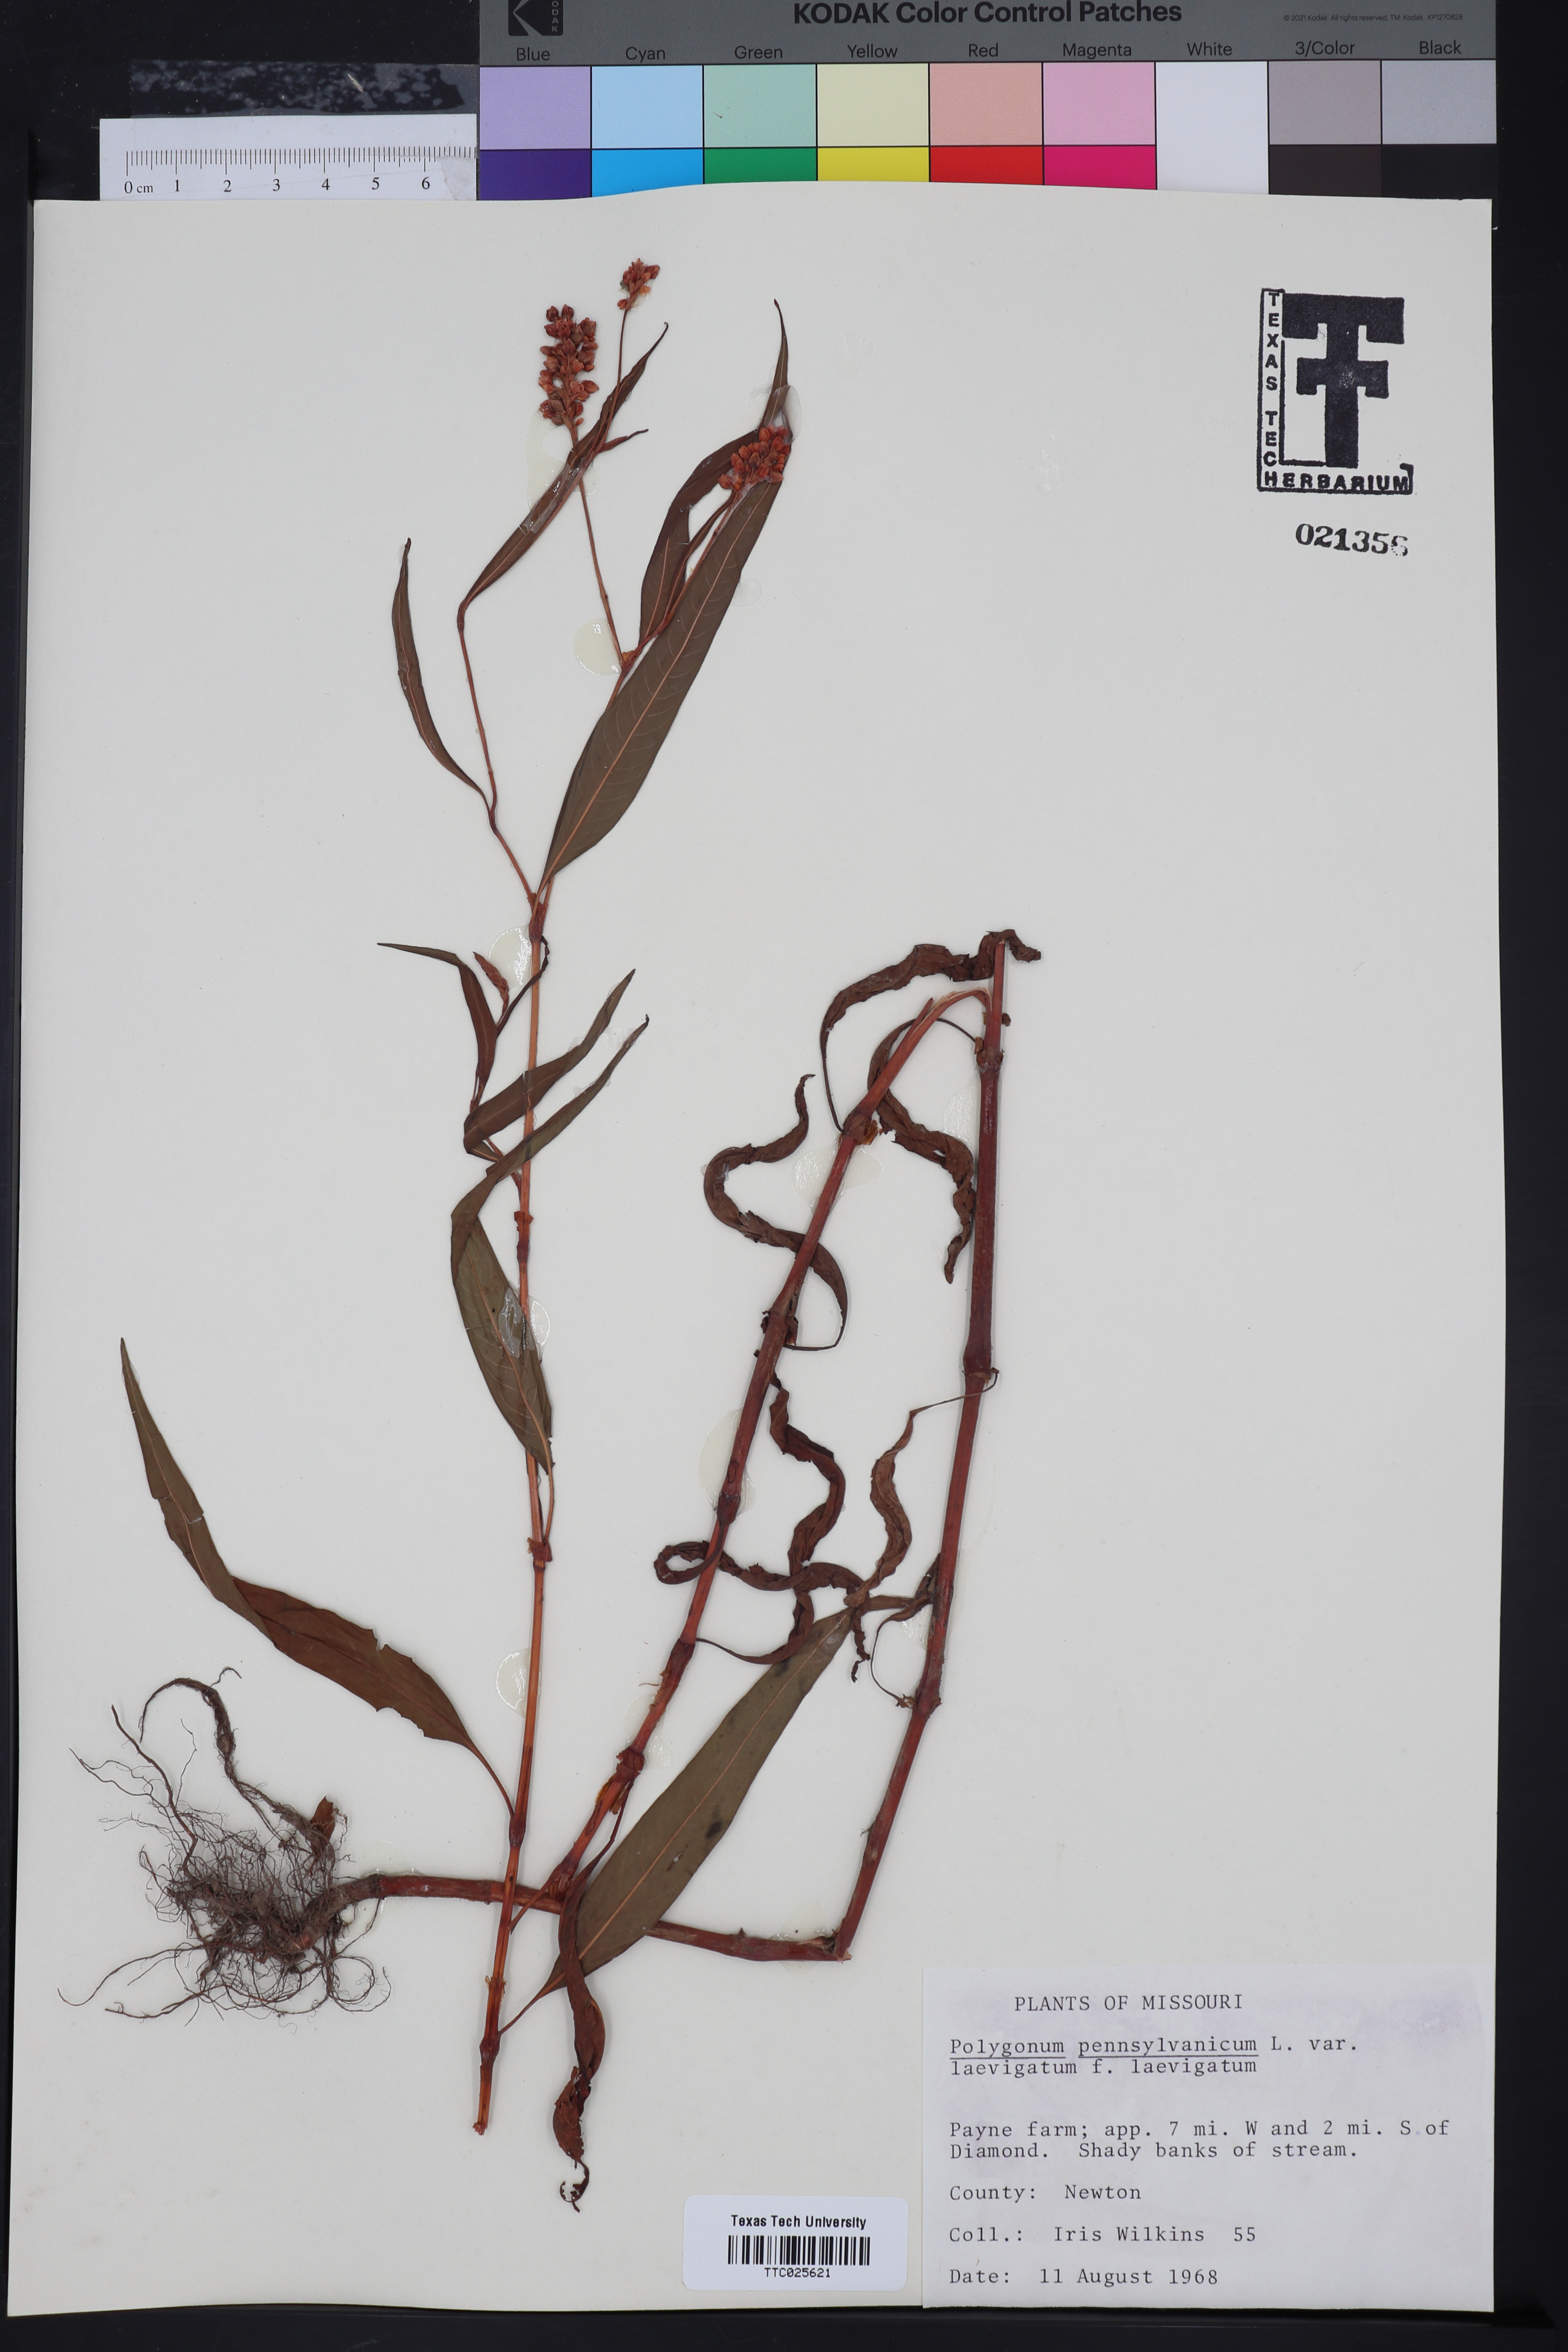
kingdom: Plantae
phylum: Tracheophyta
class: Magnoliopsida
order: Caryophyllales
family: Polygonaceae
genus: Persicaria
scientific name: Persicaria pensylvanica
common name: Pinkweed
